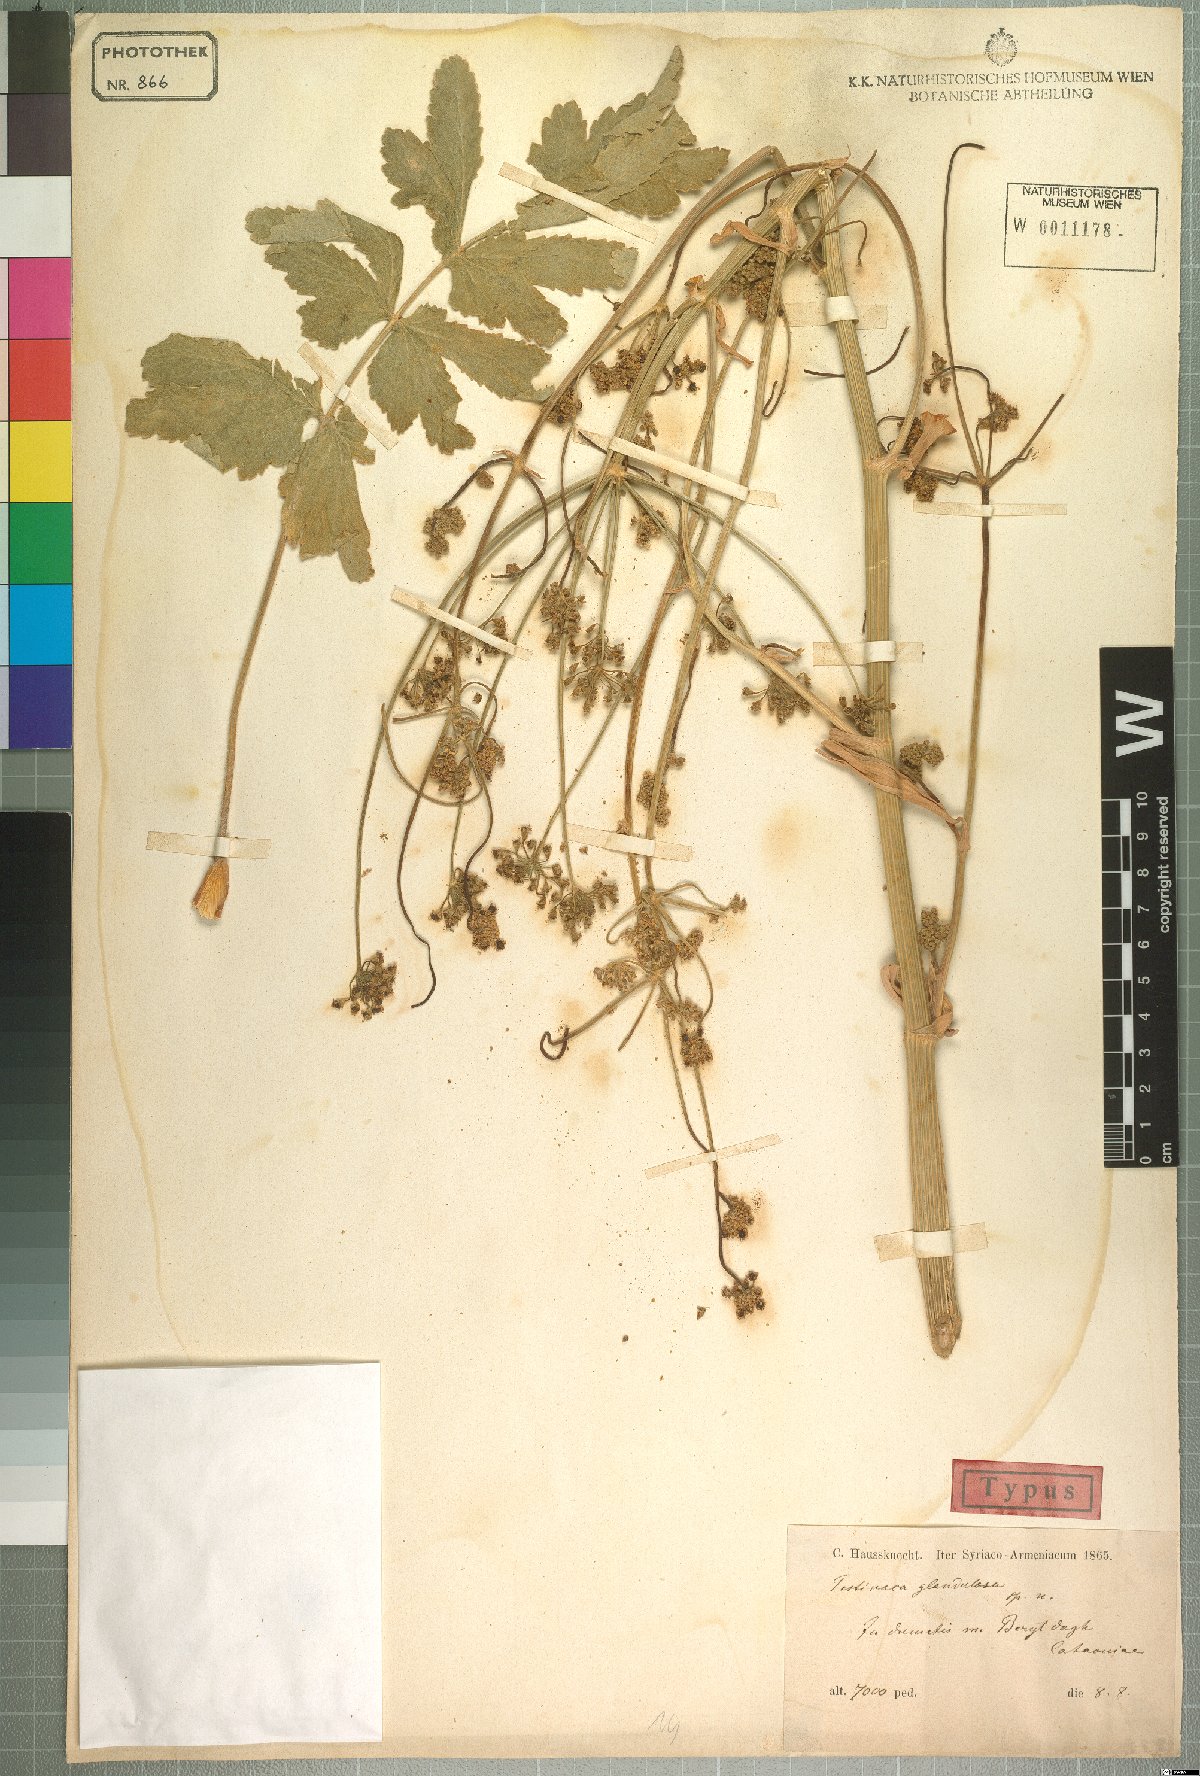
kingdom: Plantae
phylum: Tracheophyta
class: Magnoliopsida
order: Apiales
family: Apiaceae
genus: Pastinaca
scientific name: Pastinaca glandulosa
